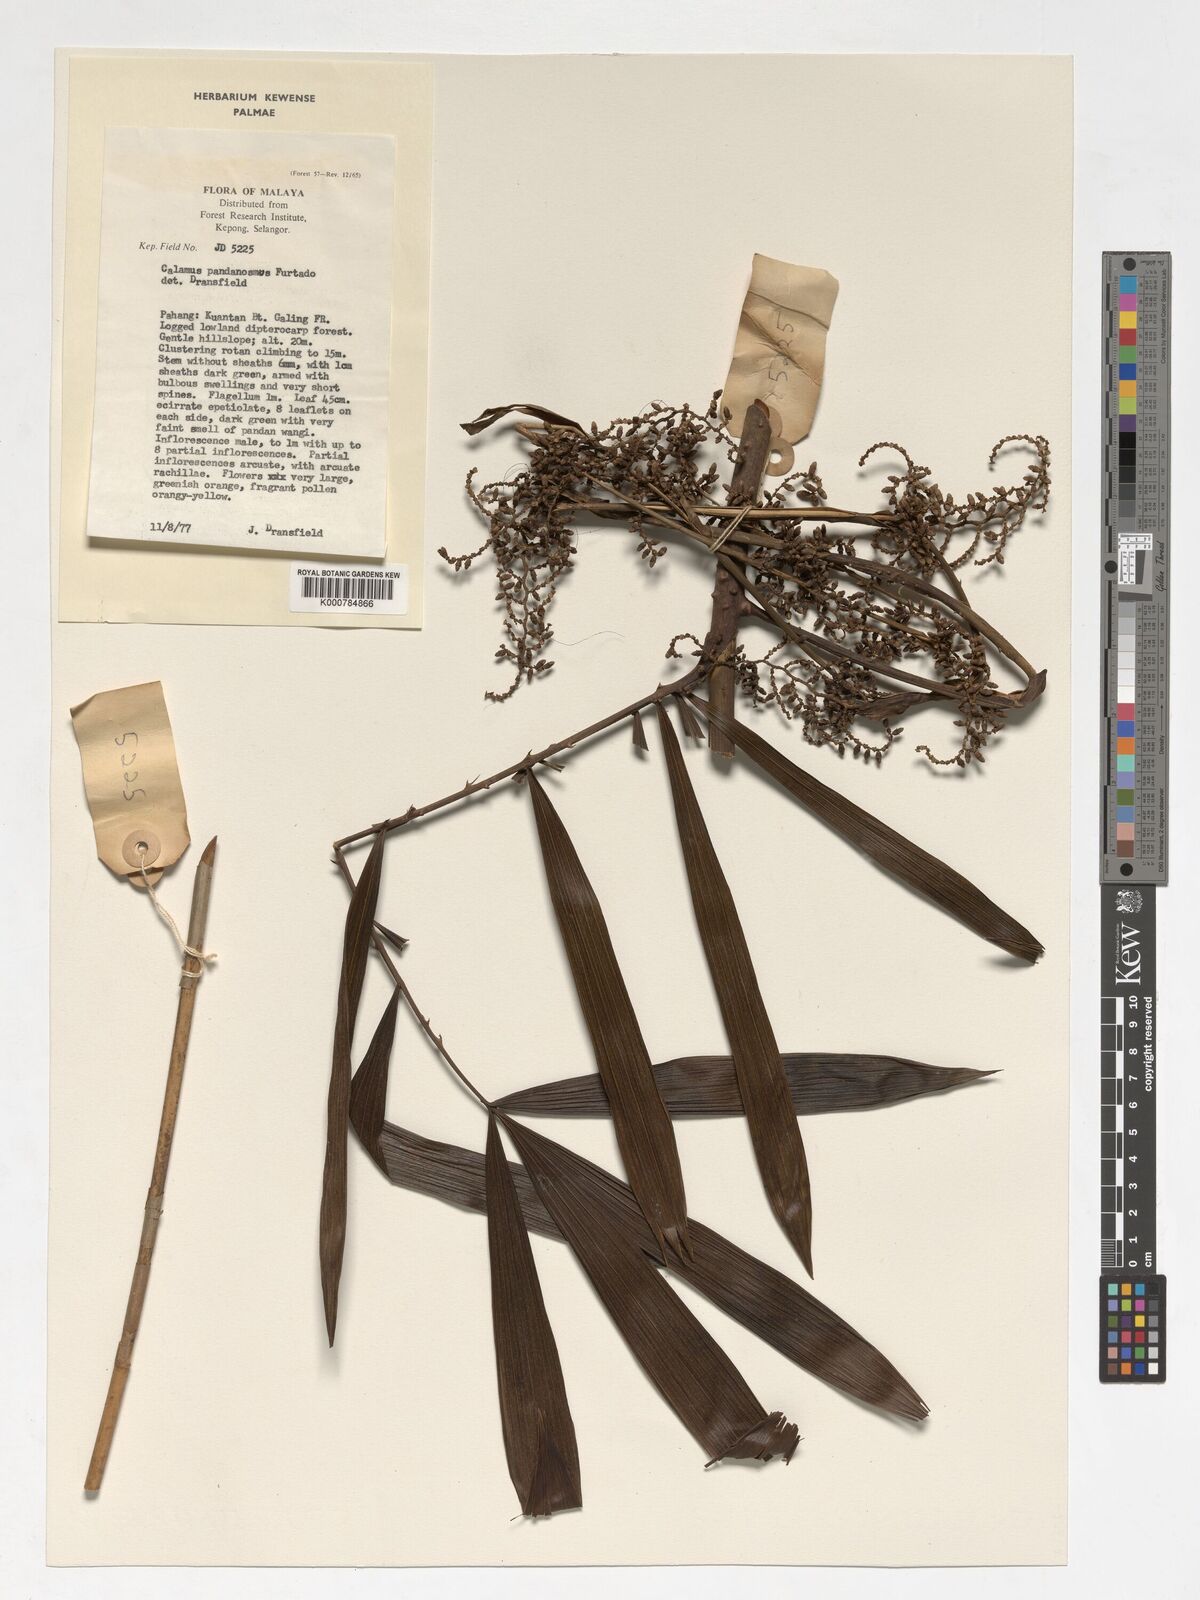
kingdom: Plantae
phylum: Tracheophyta
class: Liliopsida
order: Arecales
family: Arecaceae
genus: Calamus
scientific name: Calamus pandanosmus
